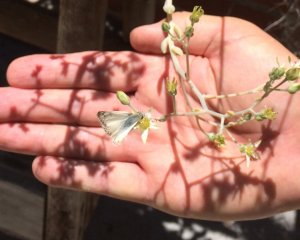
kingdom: Animalia
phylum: Arthropoda
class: Insecta
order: Lepidoptera
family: Hesperiidae
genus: Heliopetes
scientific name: Heliopetes ericetorum
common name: Northern White-Skipper
